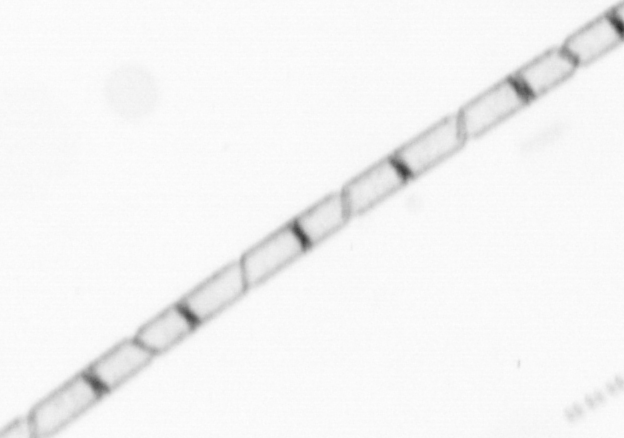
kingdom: Chromista
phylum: Ochrophyta
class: Bacillariophyceae
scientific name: Bacillariophyceae
